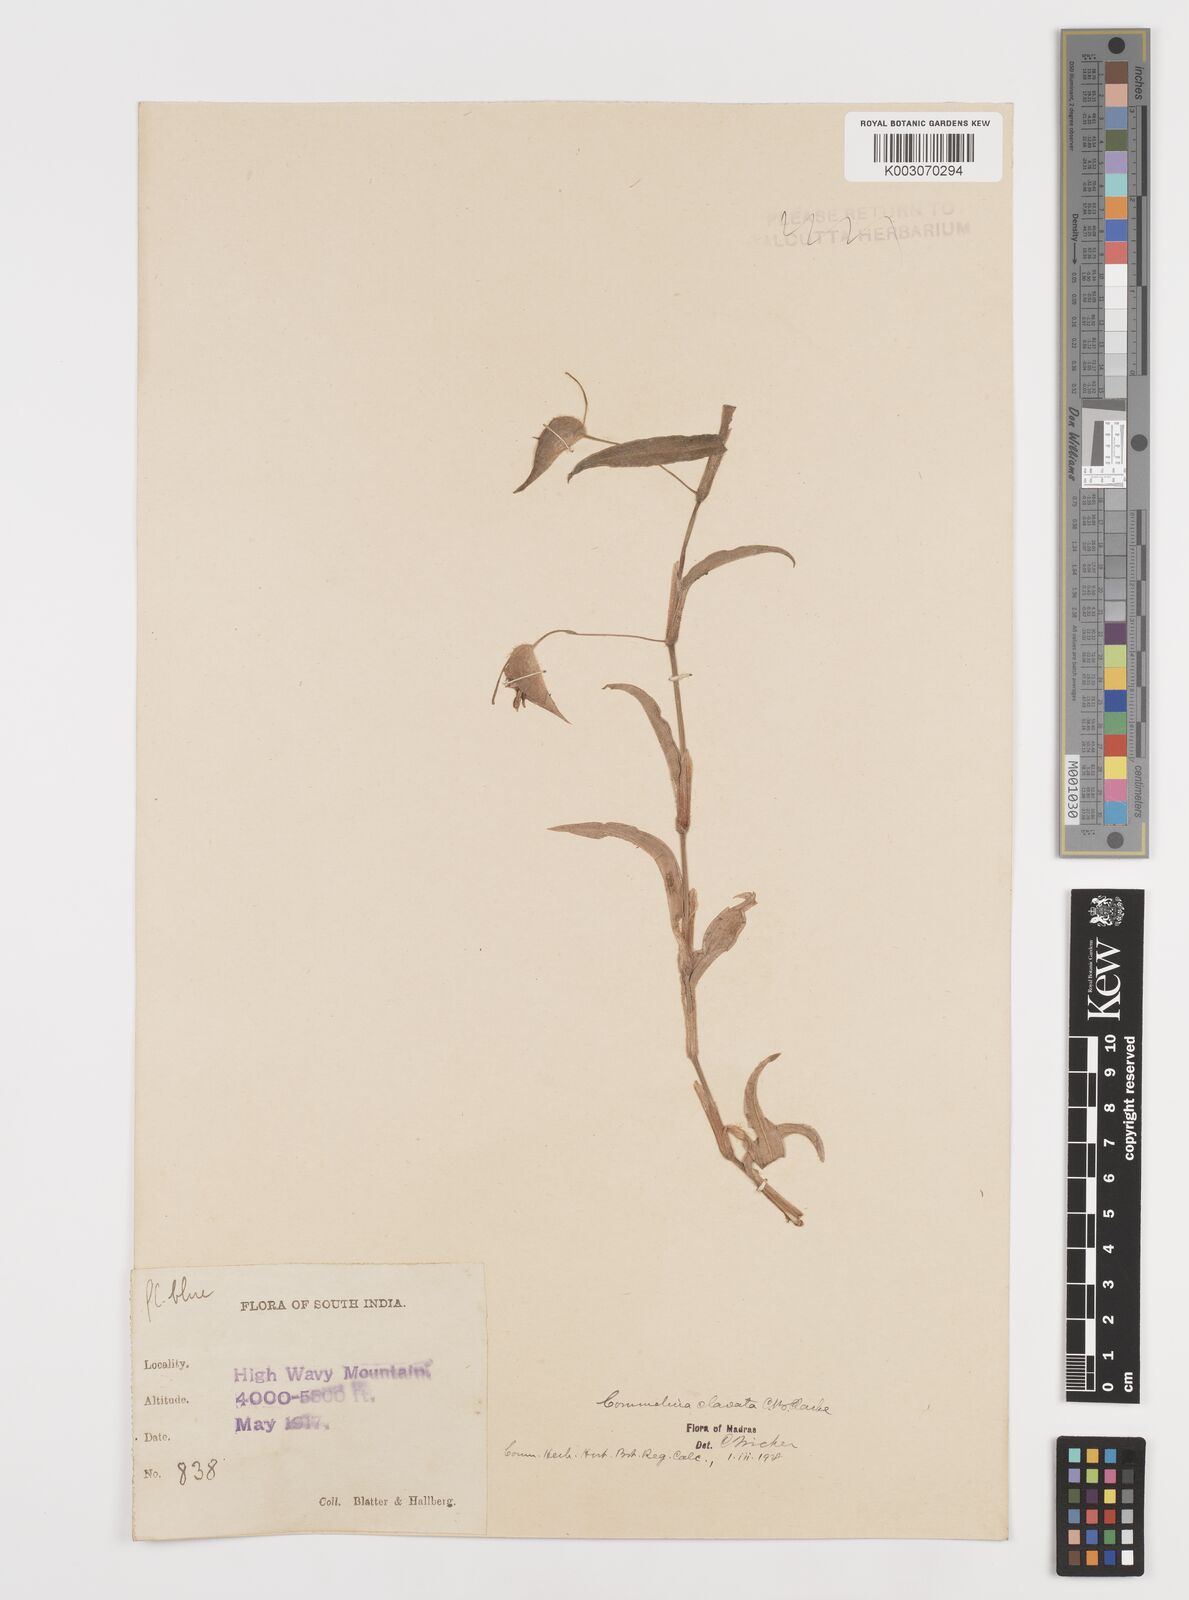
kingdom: Plantae
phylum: Tracheophyta
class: Liliopsida
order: Commelinales
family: Commelinaceae
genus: Commelina
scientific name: Commelina clavata
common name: Willow leaved dayflower
